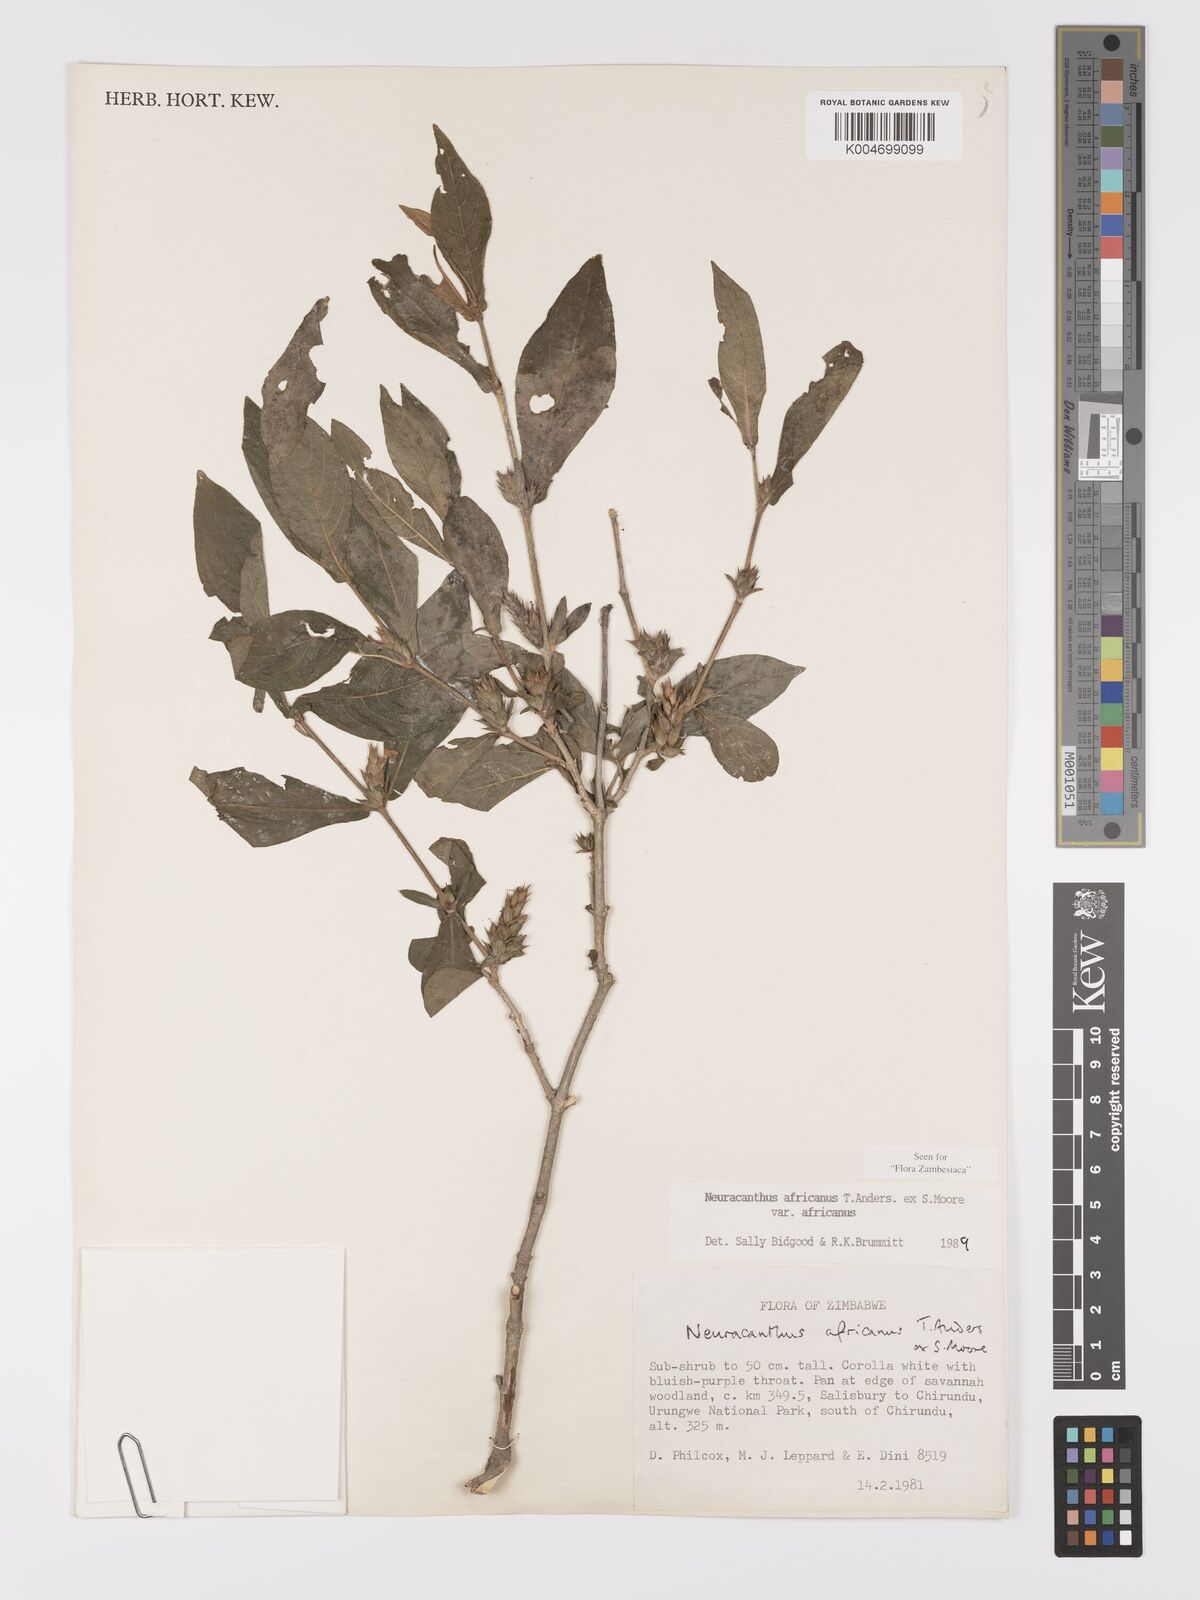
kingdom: Plantae
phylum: Tracheophyta
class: Magnoliopsida
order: Lamiales
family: Acanthaceae
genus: Neuracanthus
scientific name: Neuracanthus africanus
